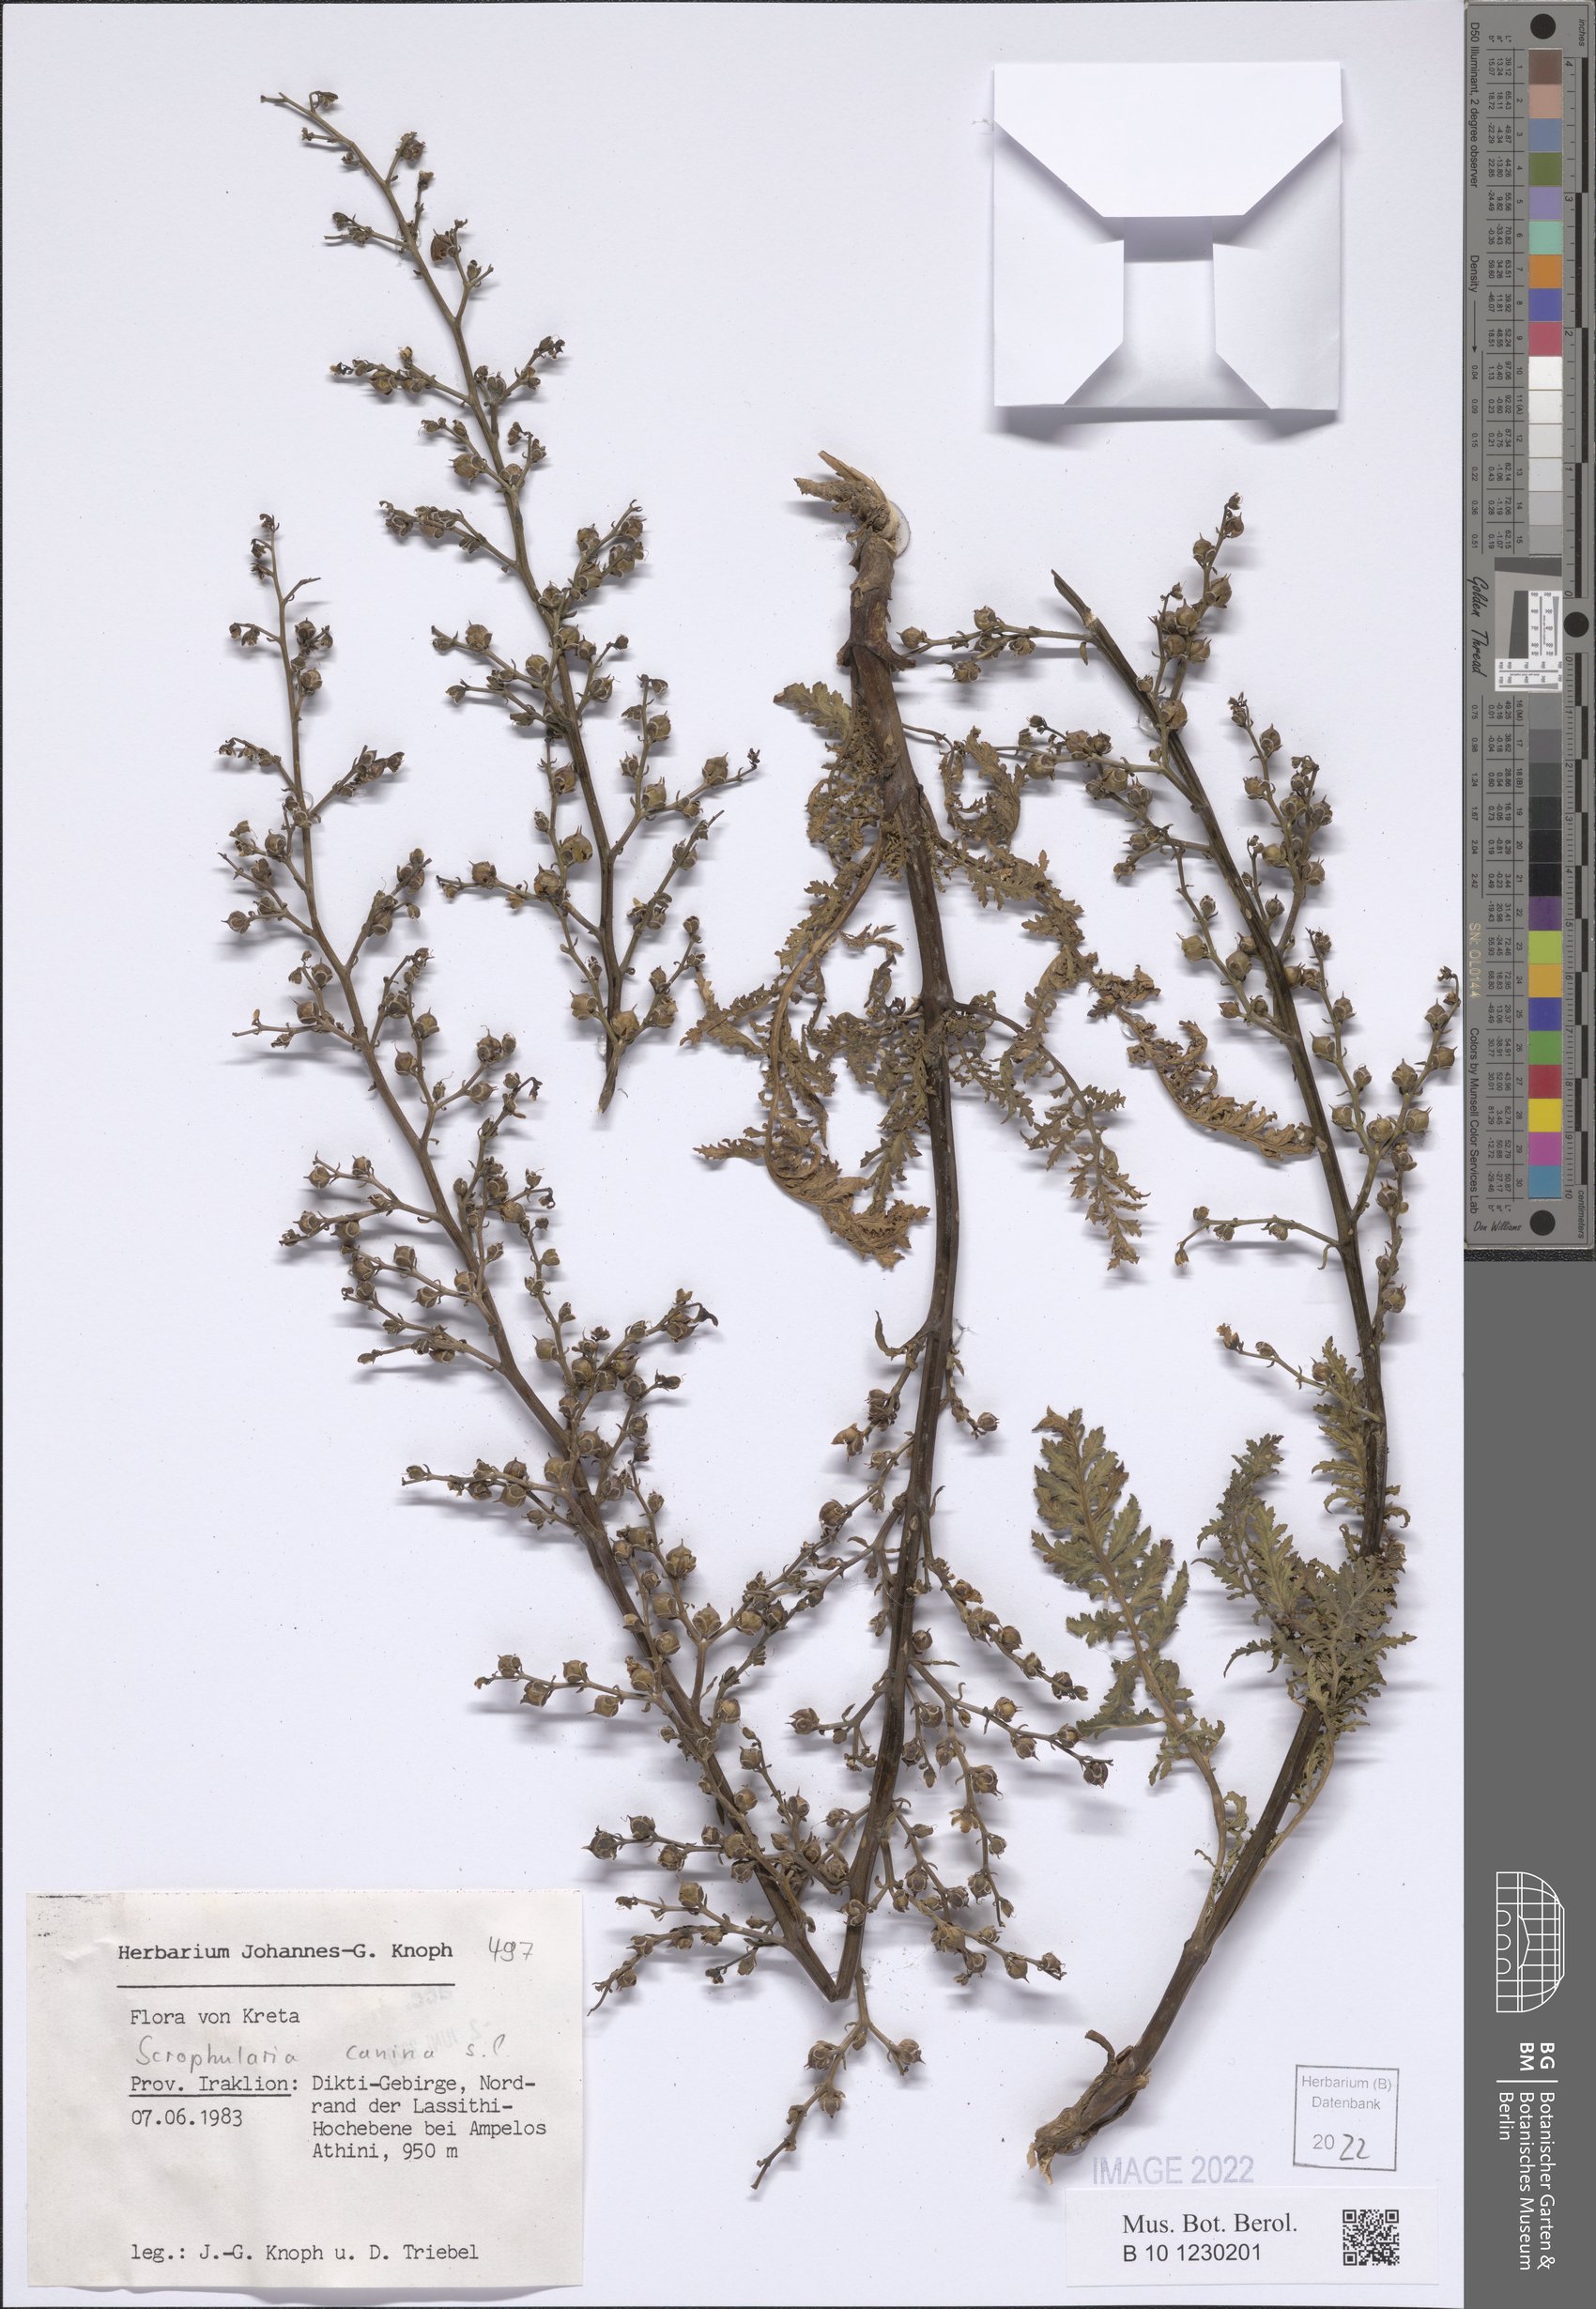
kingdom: Plantae
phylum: Tracheophyta
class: Magnoliopsida
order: Lamiales
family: Scrophulariaceae
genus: Scrophularia
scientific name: Scrophularia canina
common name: French figwort
